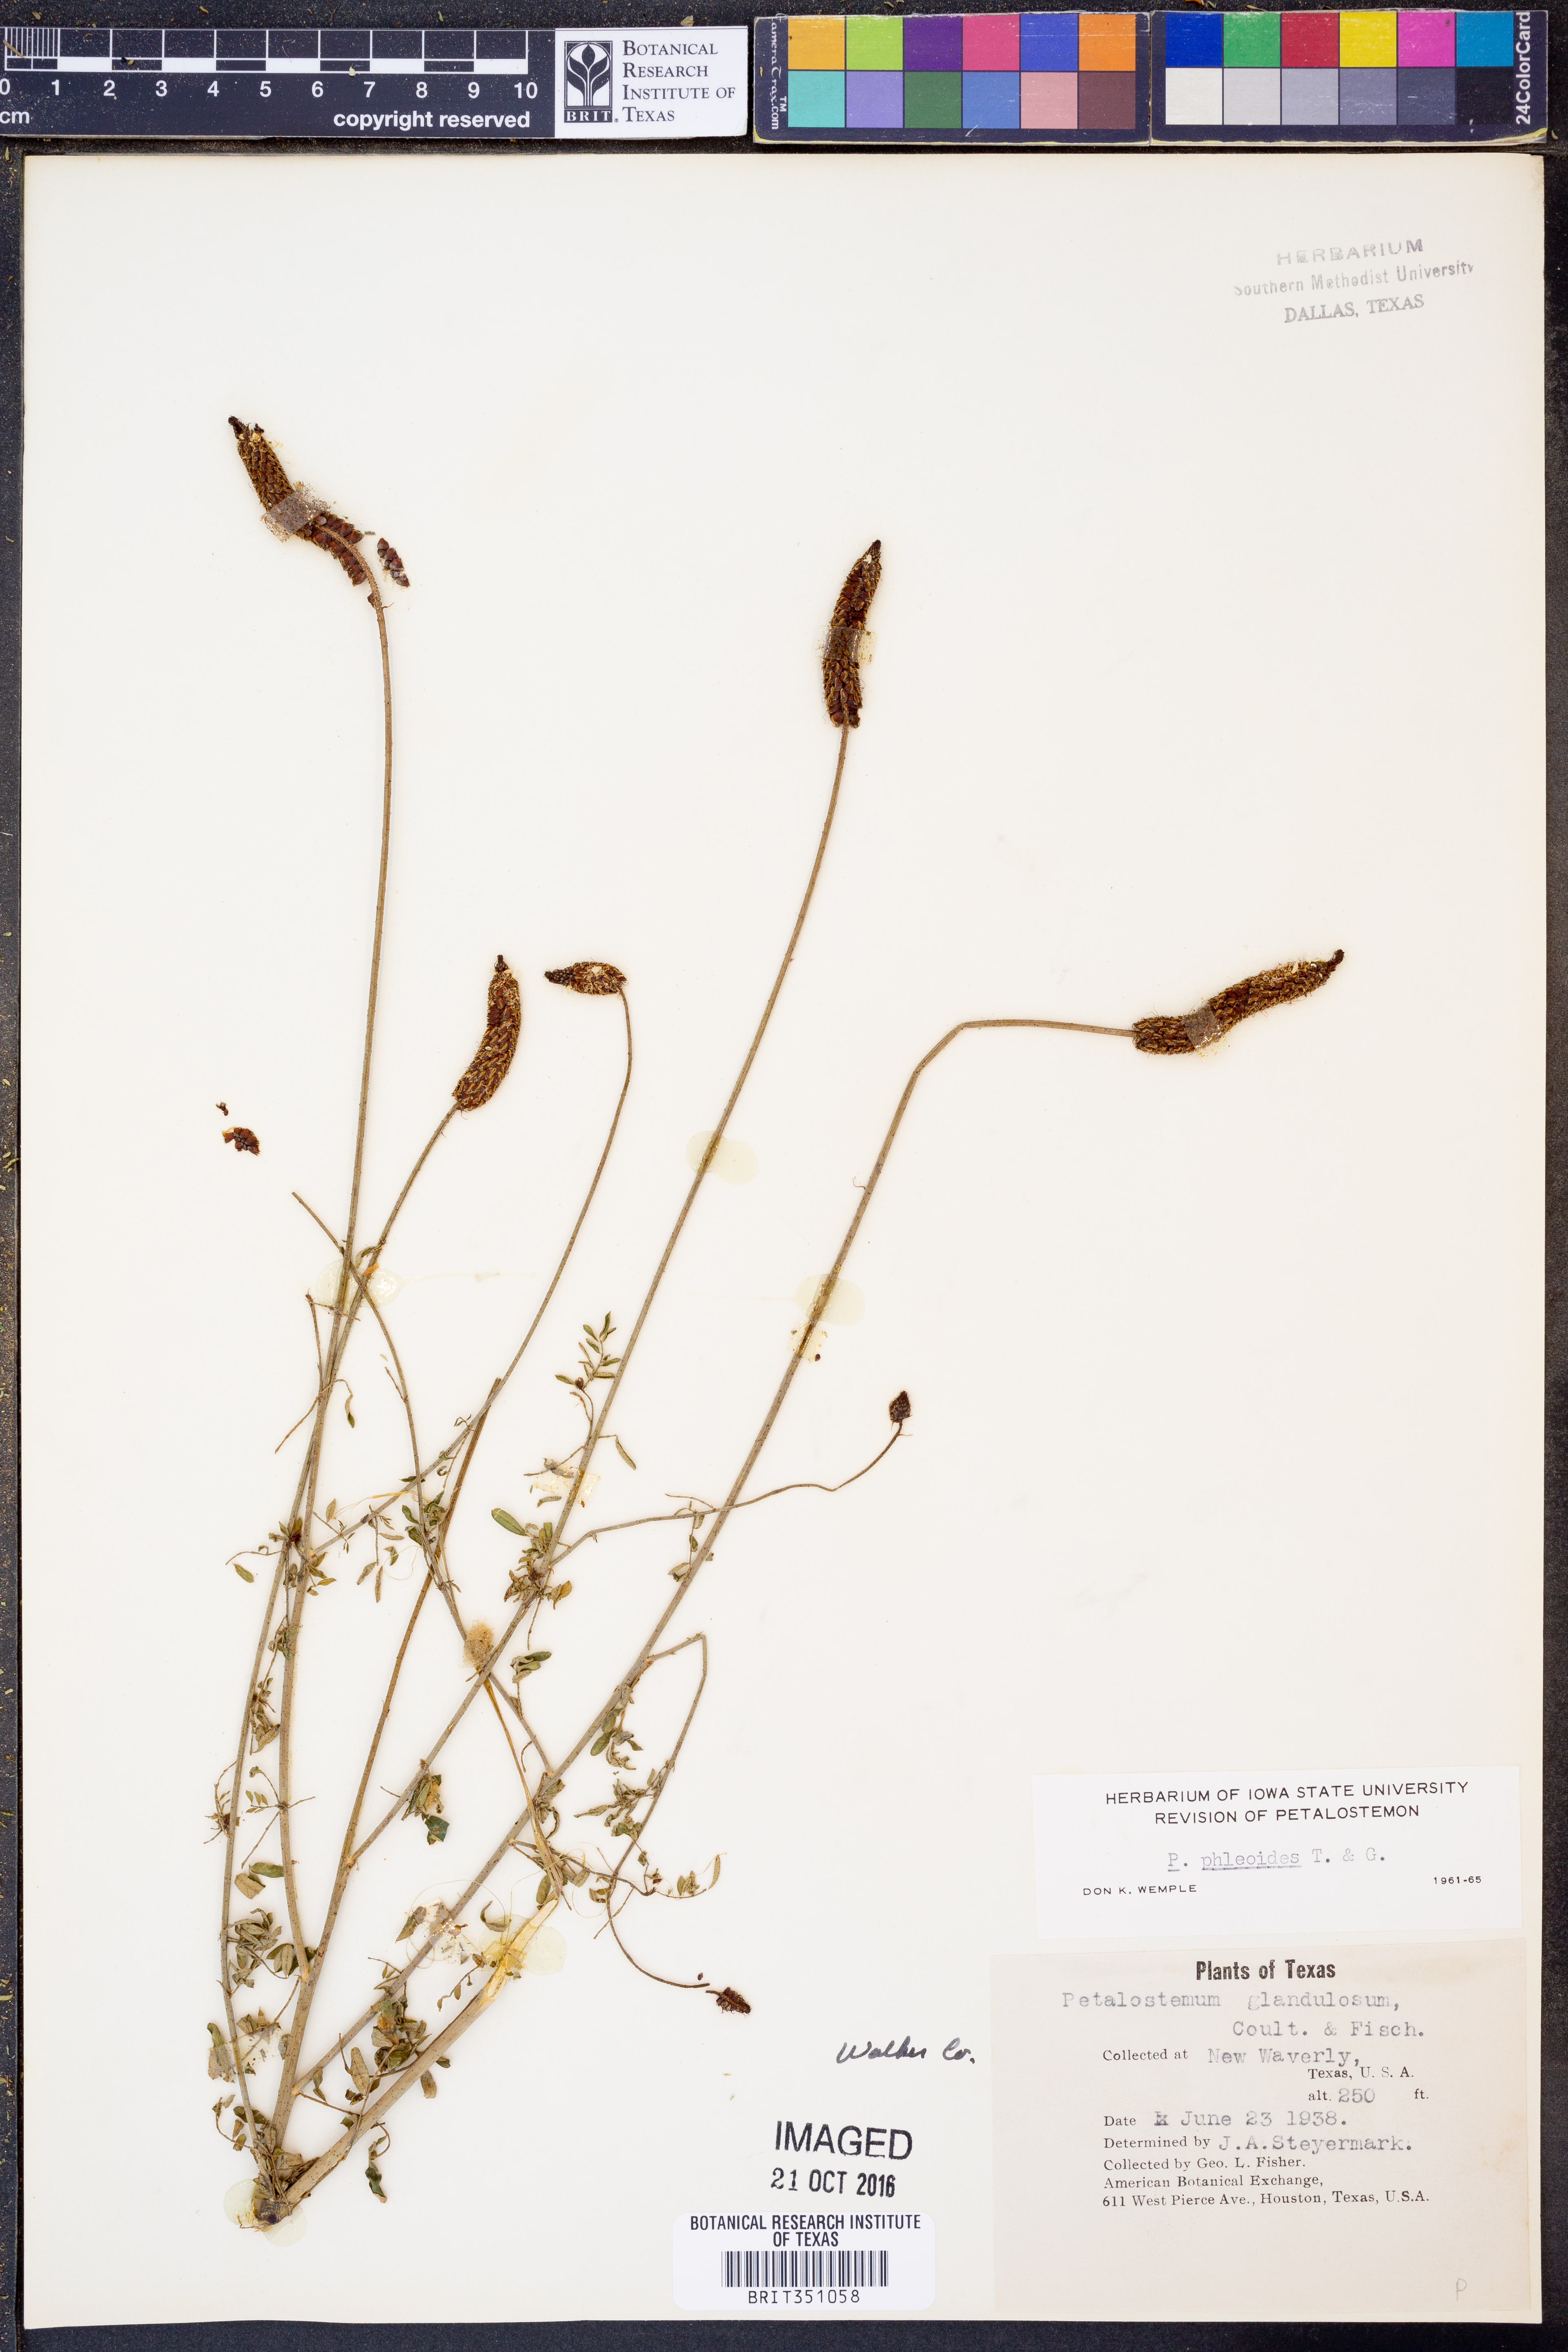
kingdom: Plantae
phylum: Tracheophyta
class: Magnoliopsida
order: Fabales
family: Fabaceae
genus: Dalea
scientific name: Dalea phleoides
